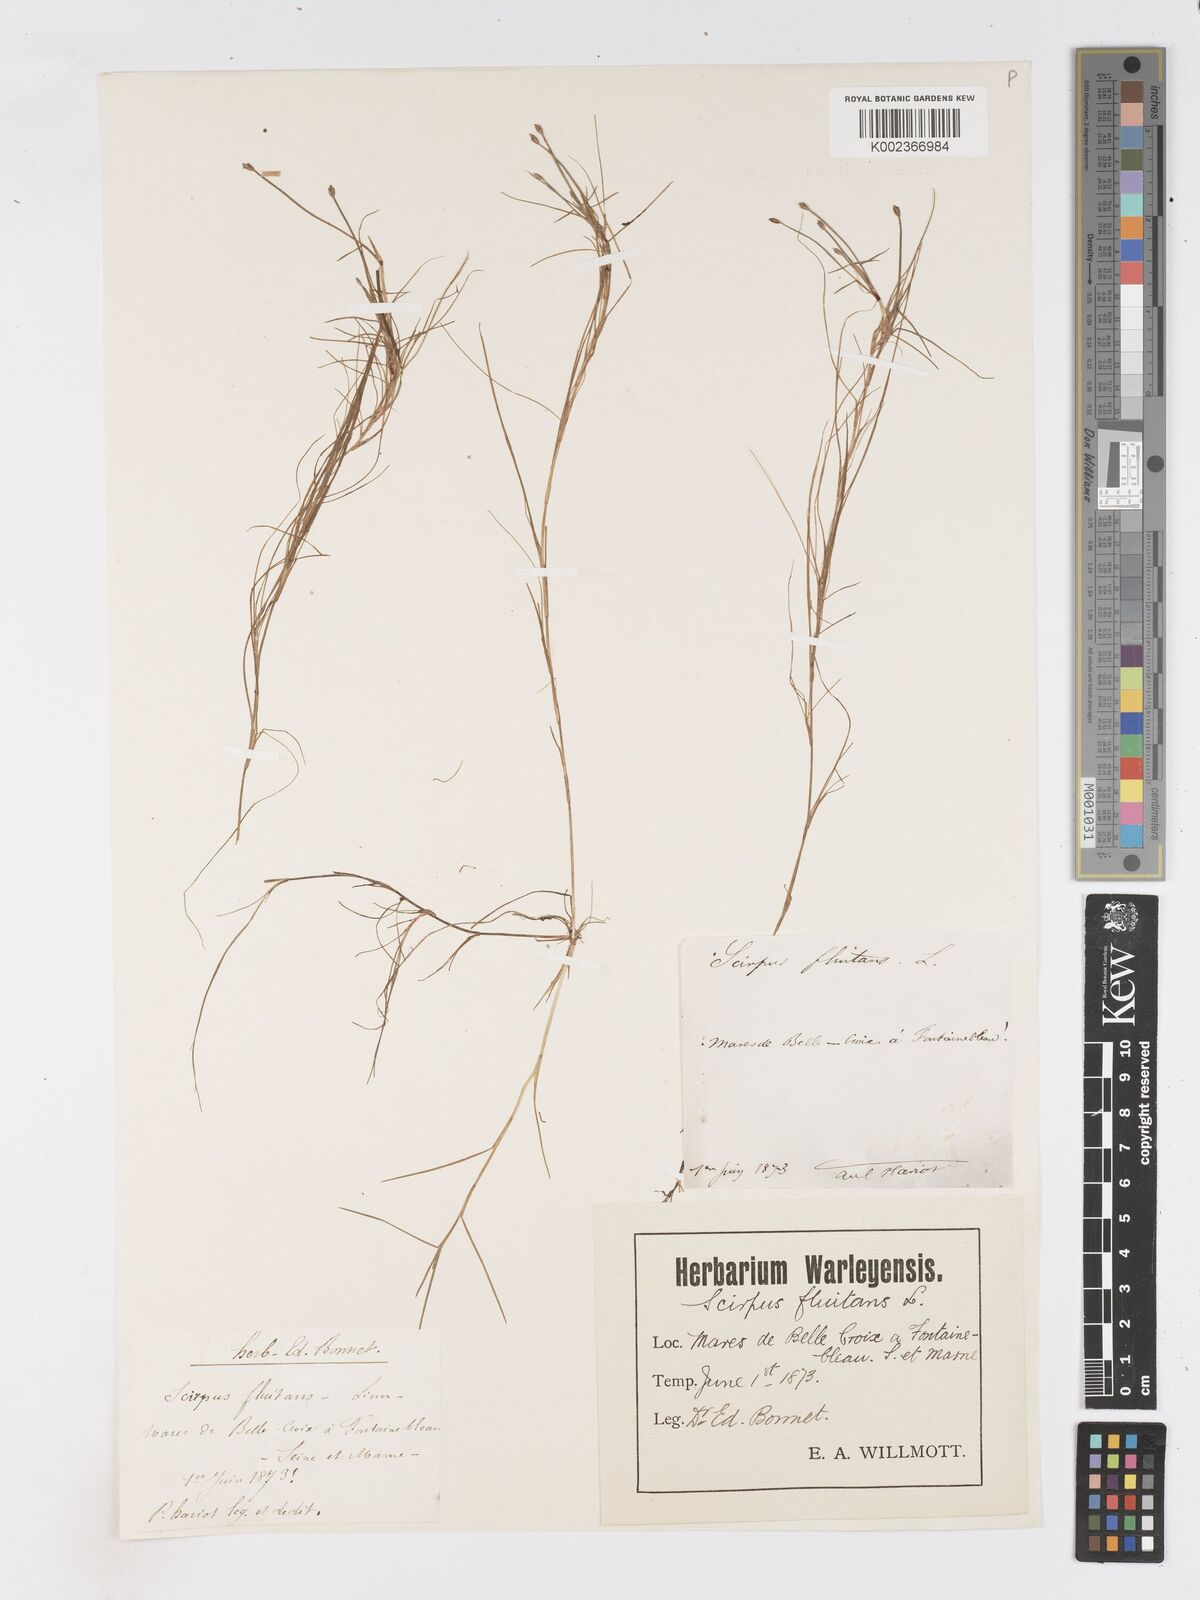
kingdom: Plantae
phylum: Tracheophyta
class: Liliopsida
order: Poales
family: Cyperaceae
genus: Isolepis
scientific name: Isolepis fluitans
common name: Floating club-rush
